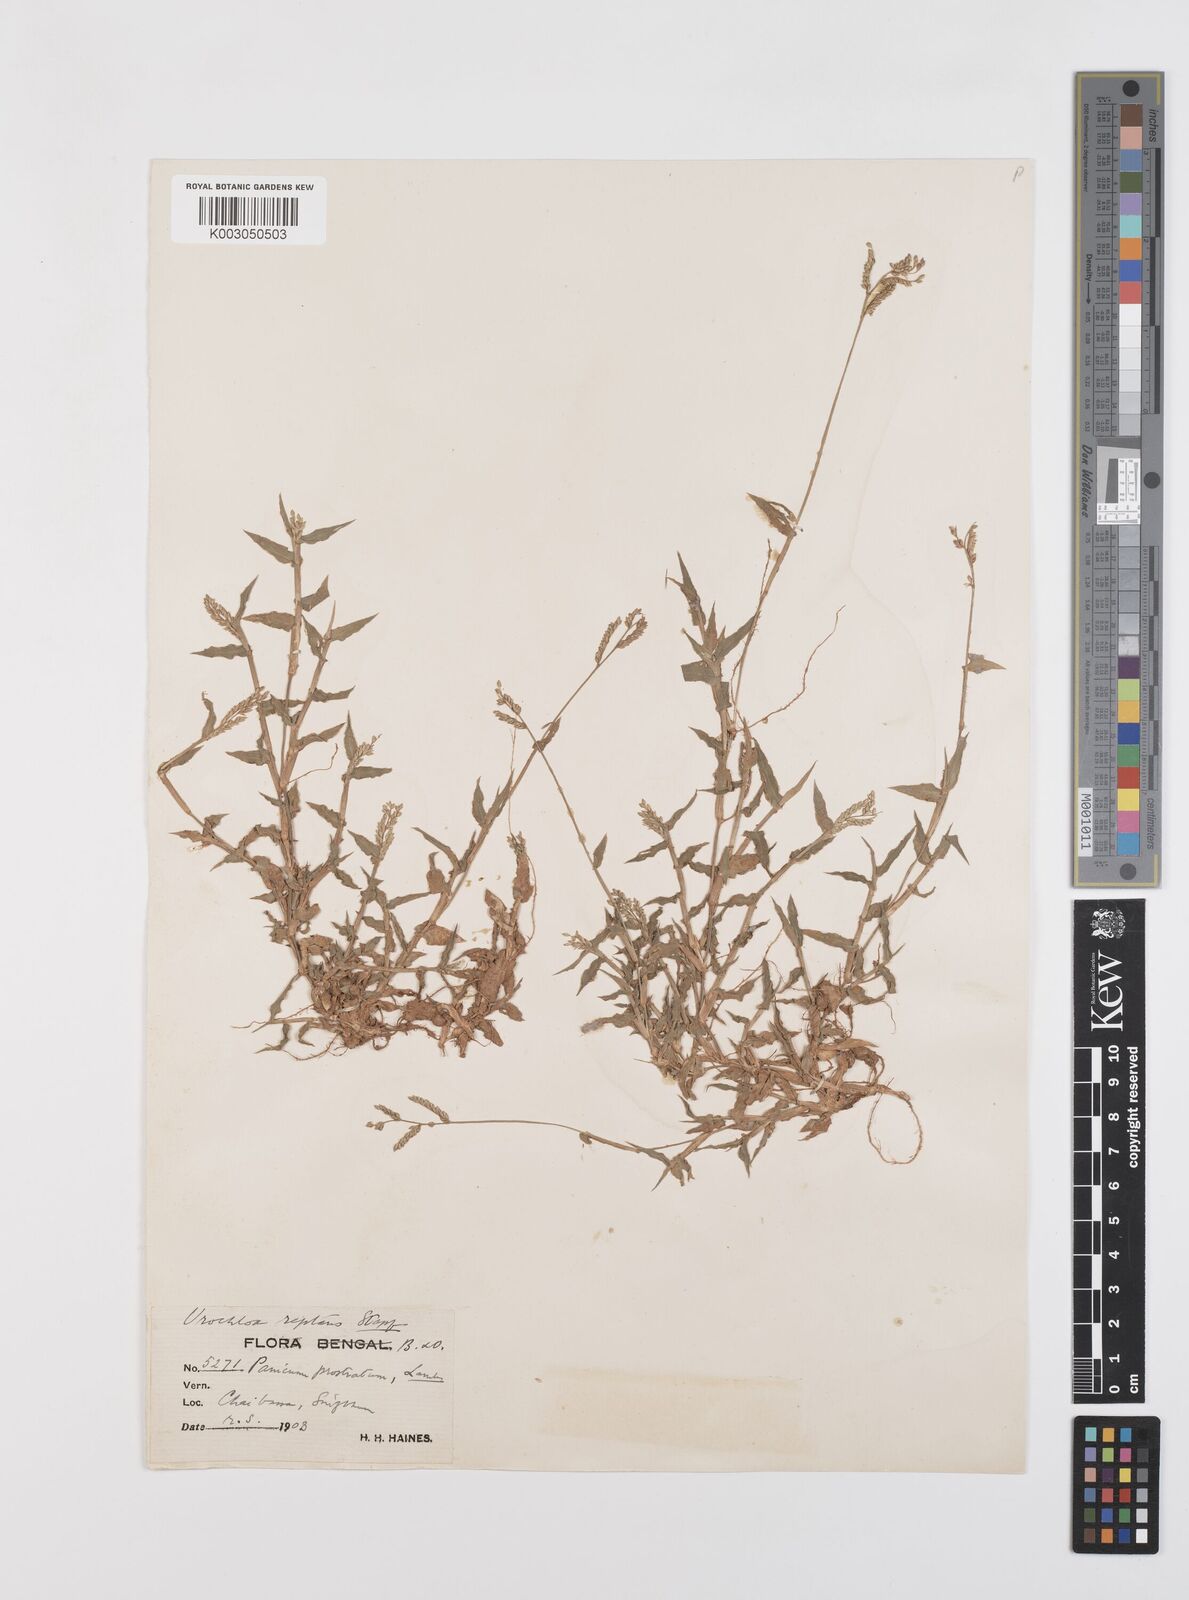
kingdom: Plantae
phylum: Tracheophyta
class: Liliopsida
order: Poales
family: Poaceae
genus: Urochloa
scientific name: Urochloa reptans
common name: Sprawling signalgrass
